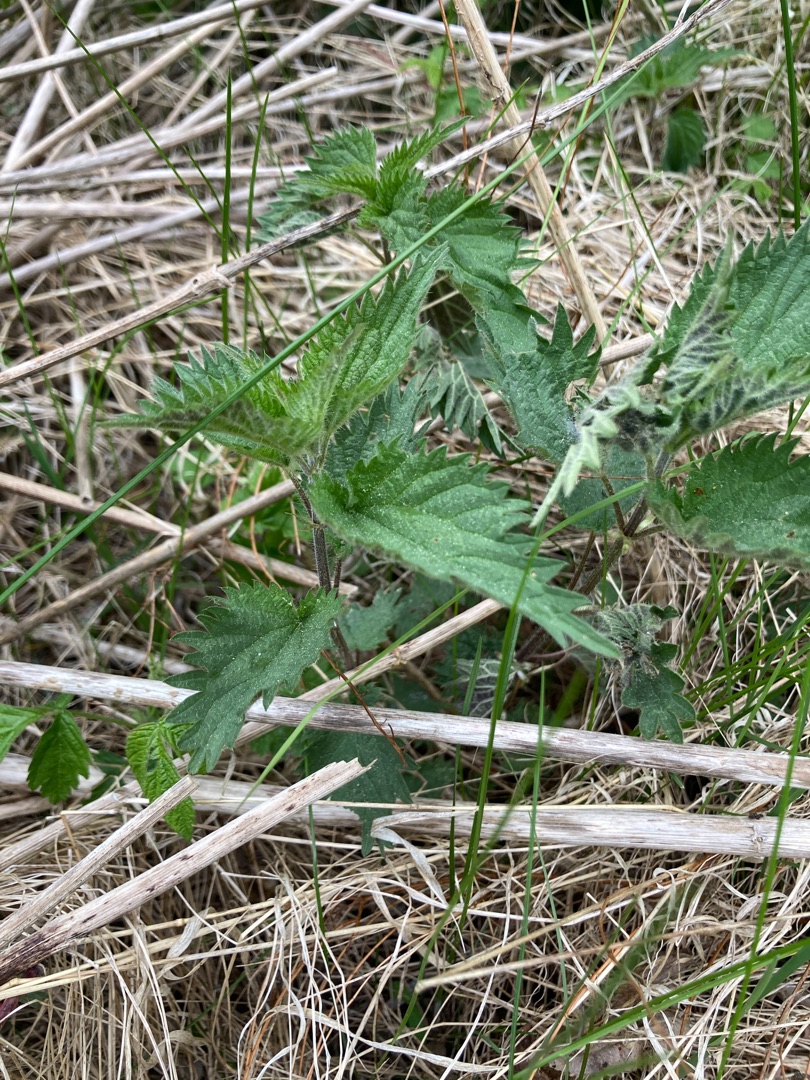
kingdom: Plantae
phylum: Tracheophyta
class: Magnoliopsida
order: Rosales
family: Urticaceae
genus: Urtica
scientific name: Urtica dioica
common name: Stor nælde
